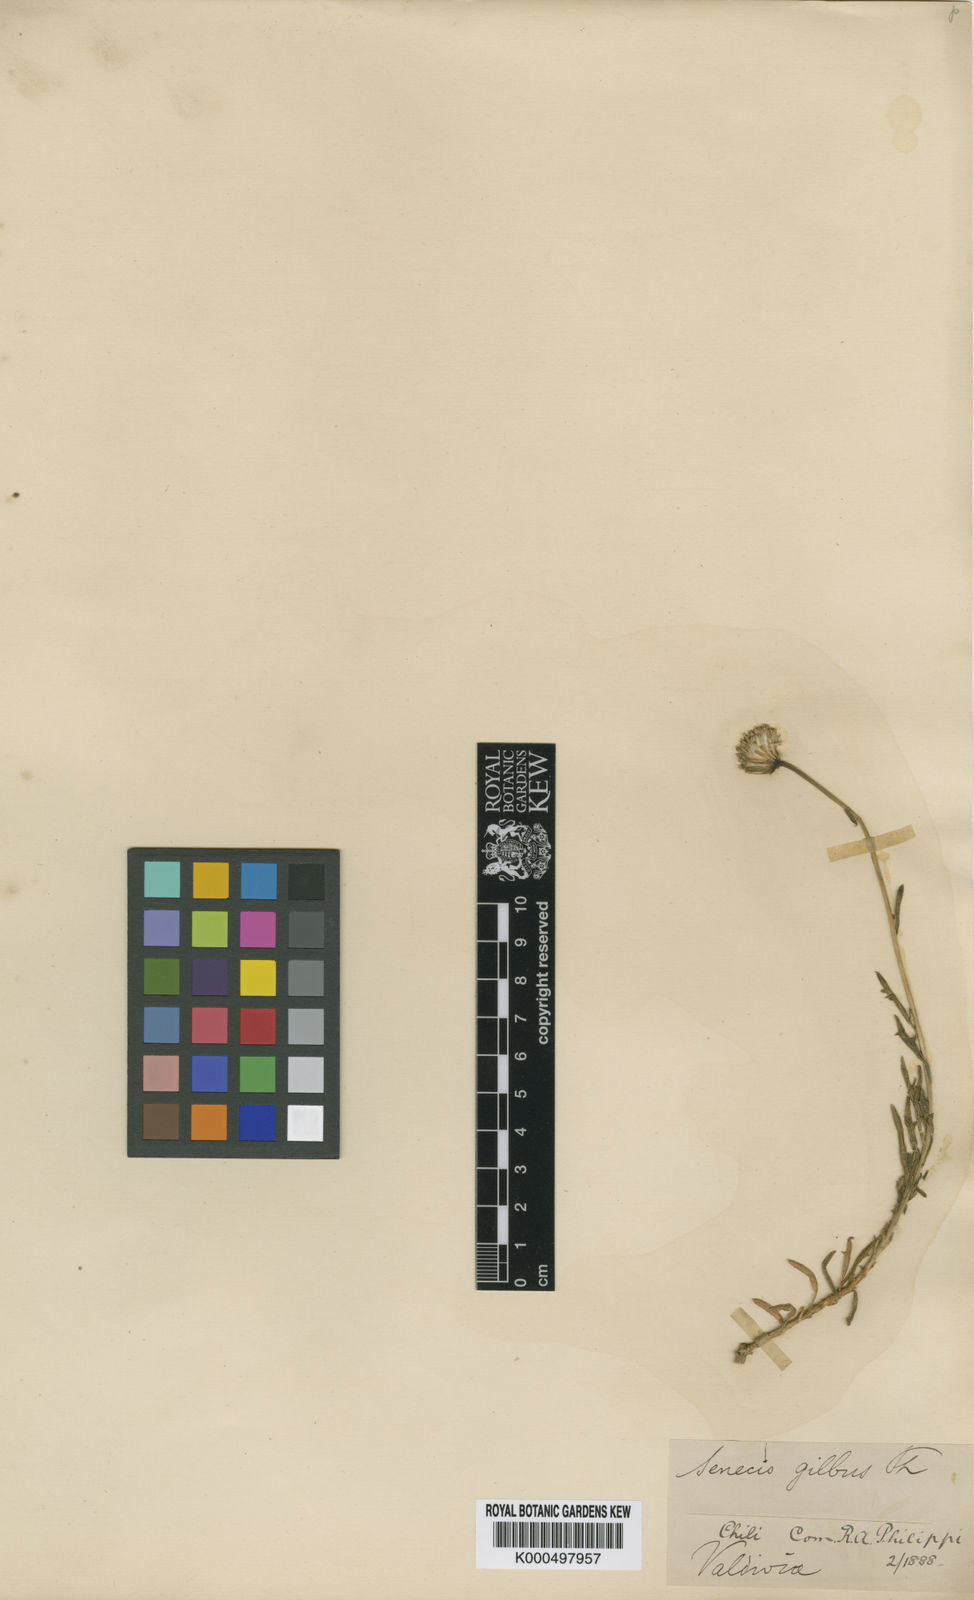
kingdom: Plantae
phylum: Tracheophyta
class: Magnoliopsida
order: Asterales
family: Asteraceae
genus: Senecio
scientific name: Senecio gnidioides
